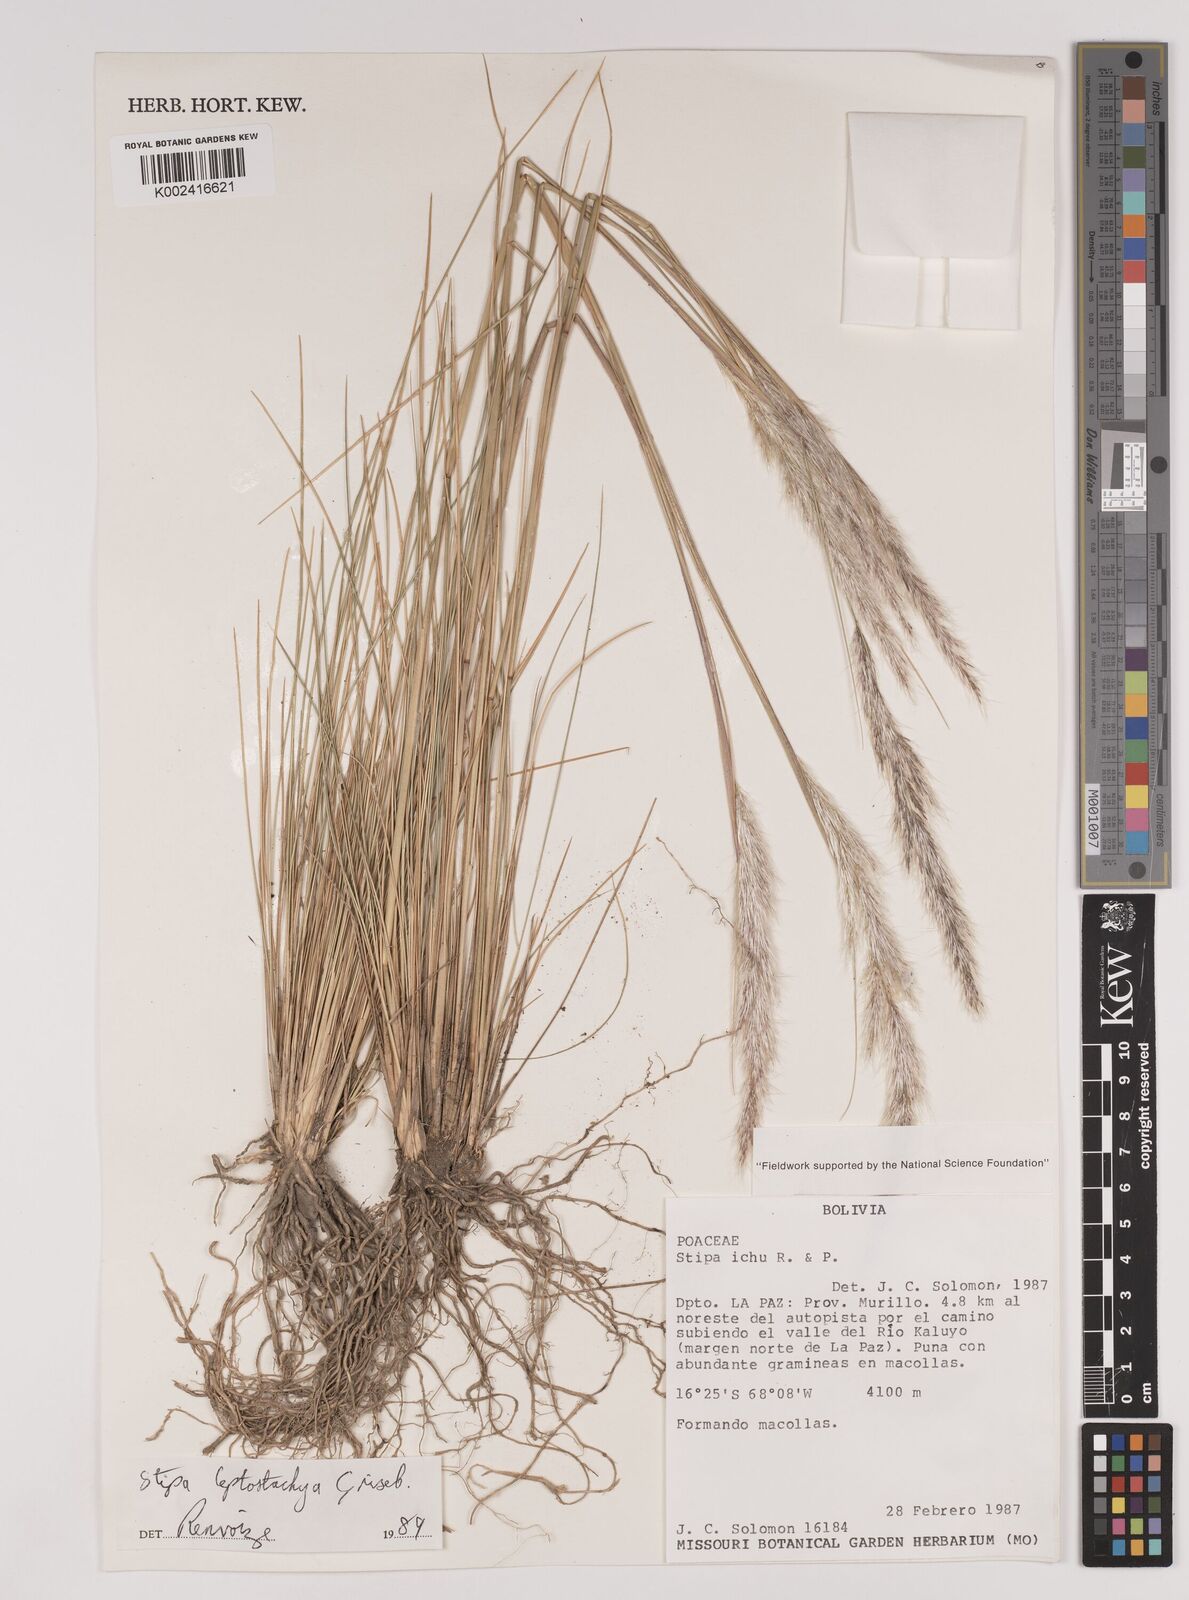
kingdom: Plantae
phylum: Tracheophyta
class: Liliopsida
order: Poales
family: Poaceae
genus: Jarava
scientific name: Jarava leptostachya
